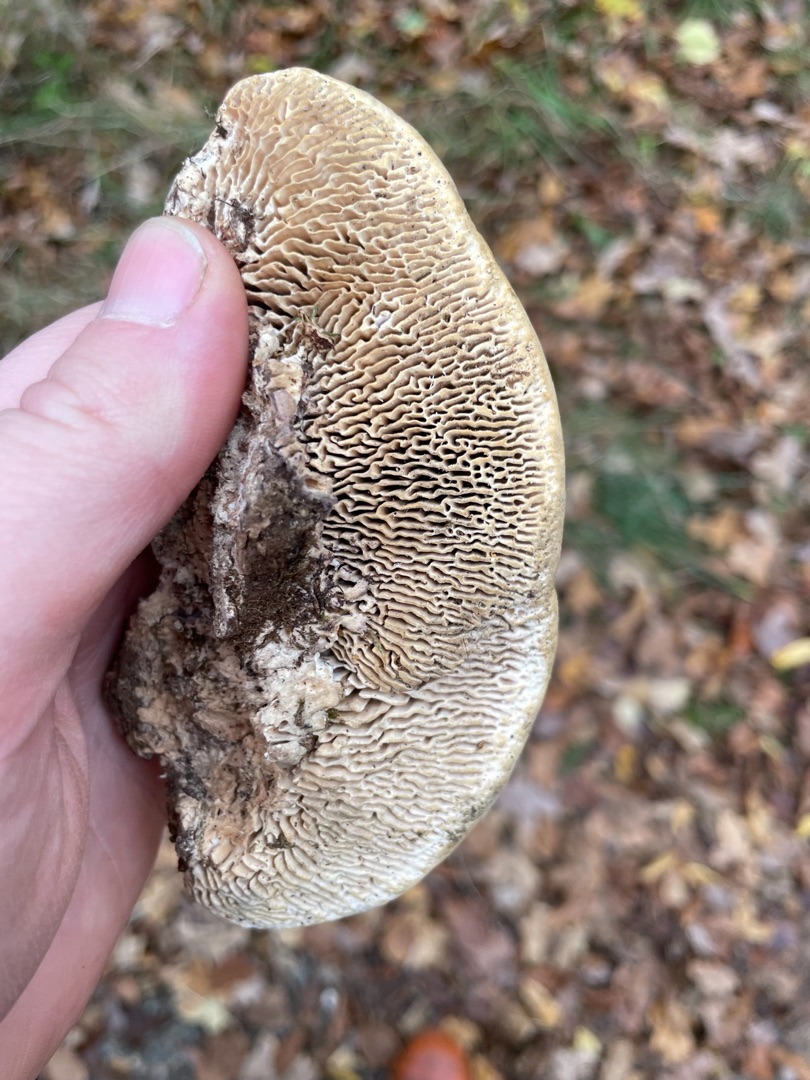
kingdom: Fungi
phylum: Basidiomycota
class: Agaricomycetes
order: Polyporales
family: Fomitopsidaceae
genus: Daedalea
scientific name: Daedalea quercina
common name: Ege-labyrintsvamp
